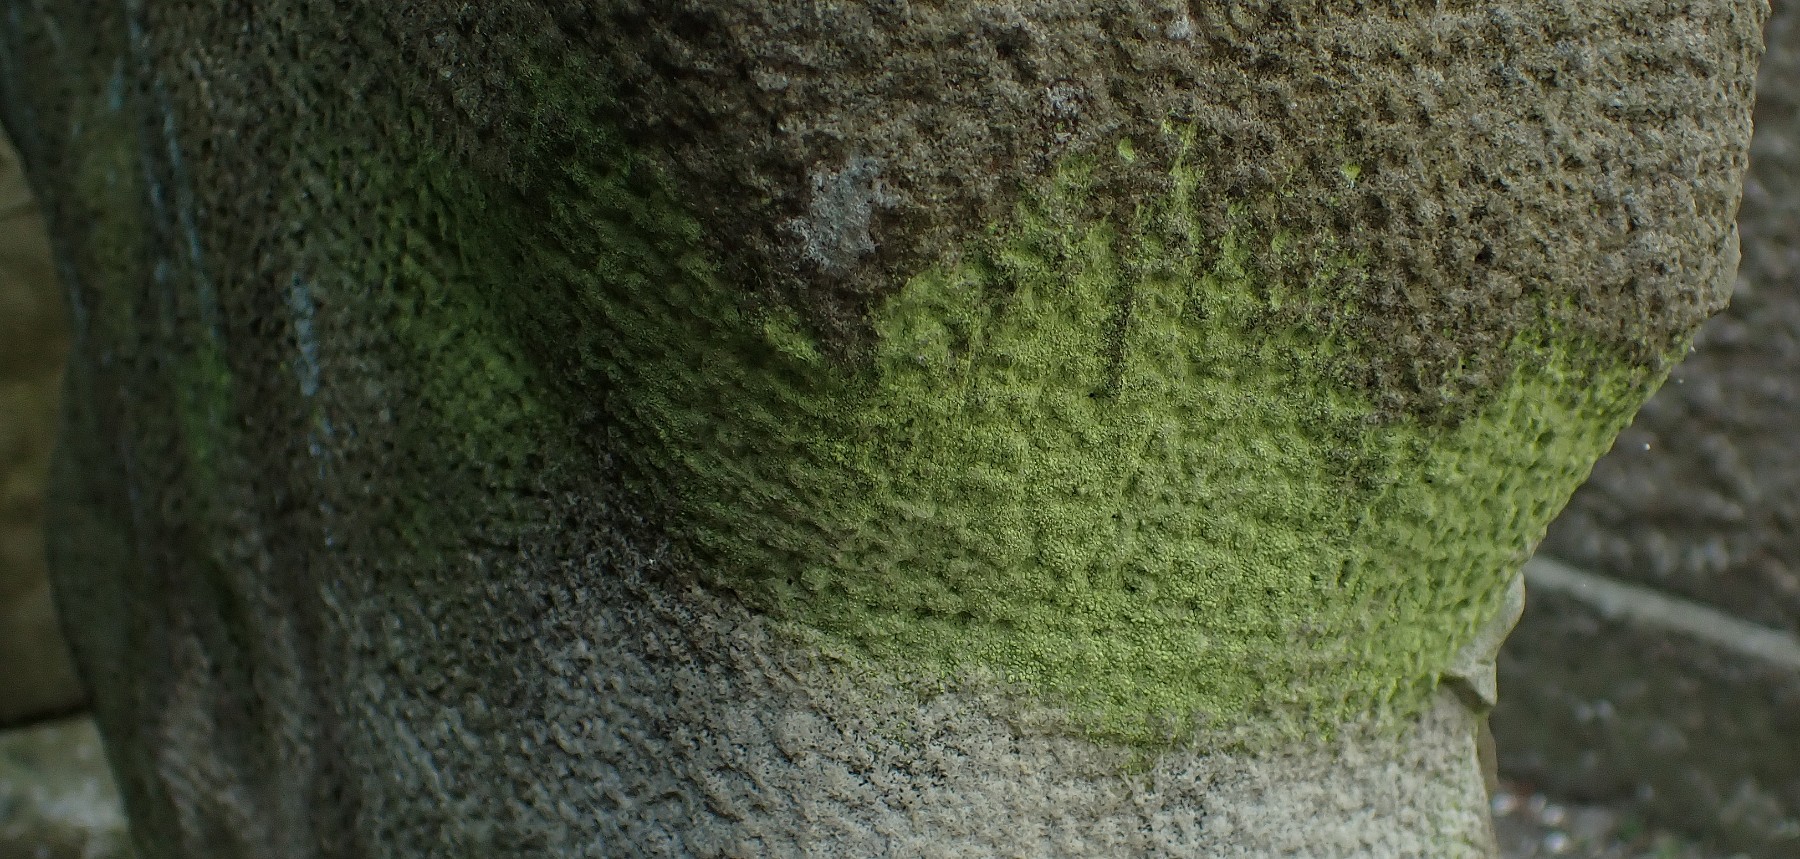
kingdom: Fungi
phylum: Ascomycota
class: Lecanoromycetes
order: Lecanorales
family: Psilolechiaceae
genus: Psilolechia
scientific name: Psilolechia lucida
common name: gul skyggelav
